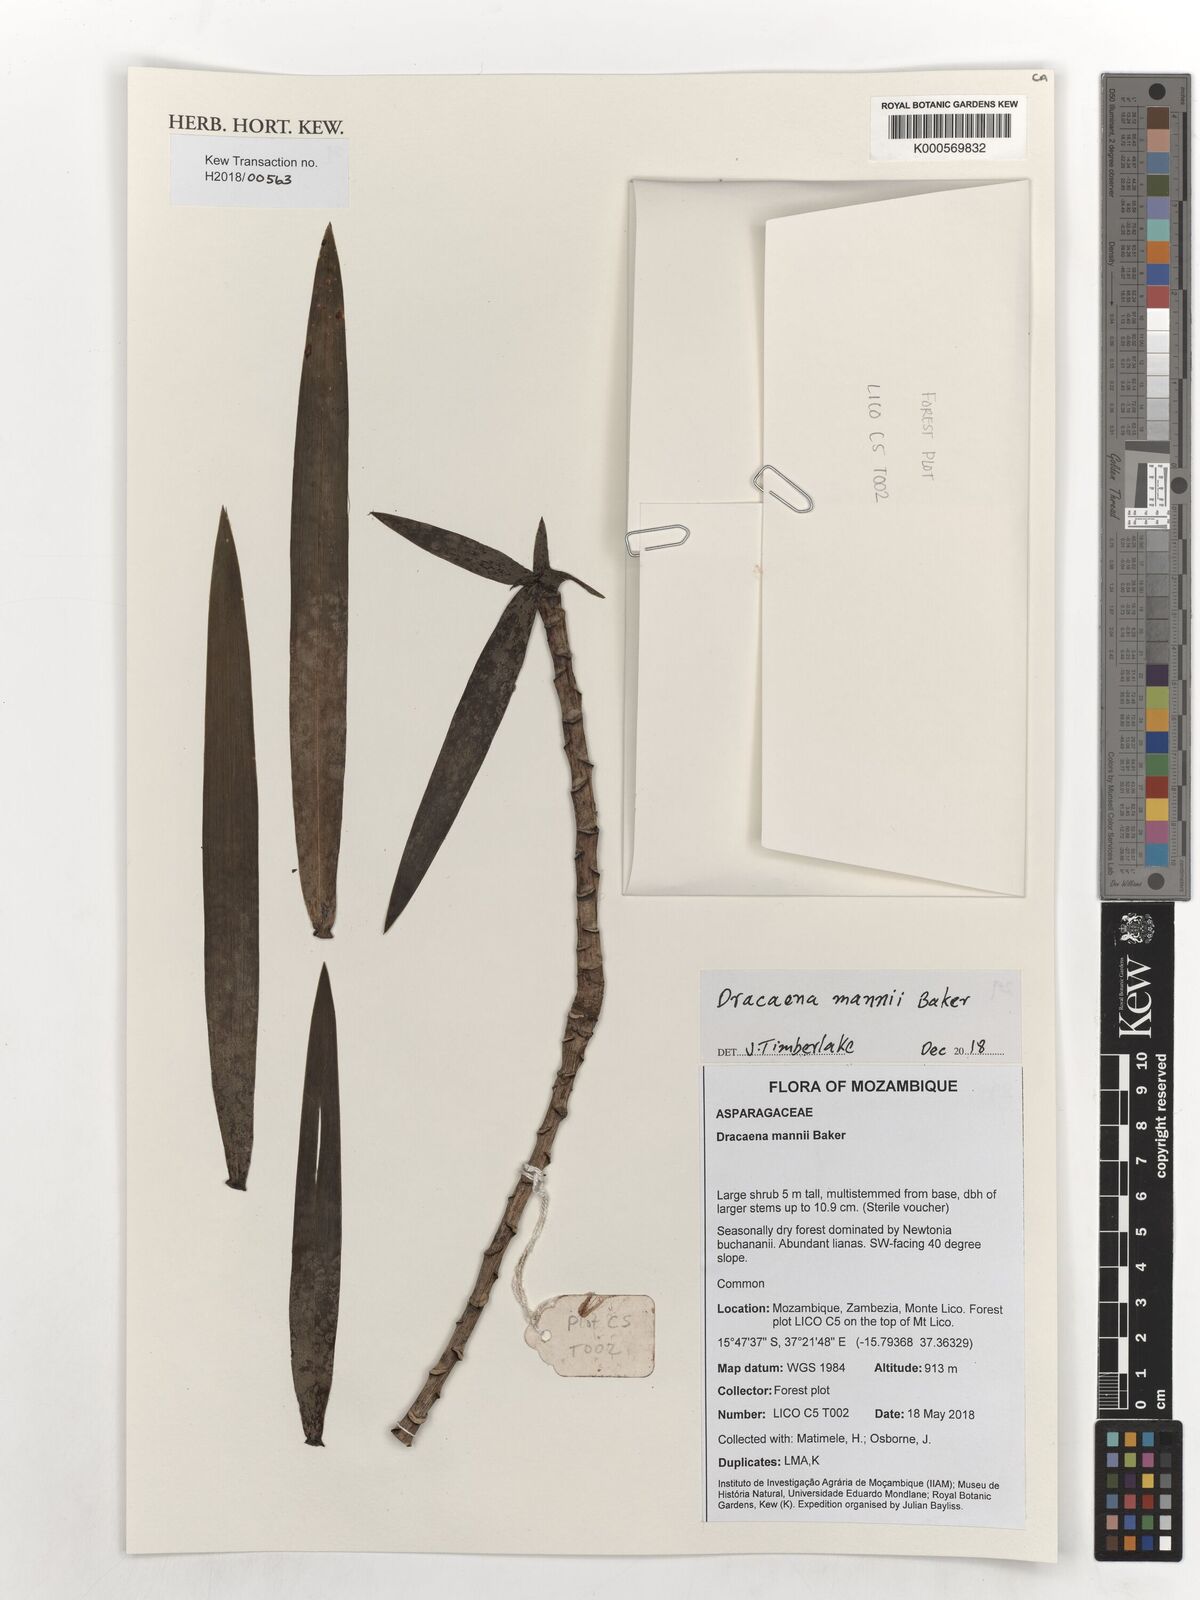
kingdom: Plantae
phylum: Tracheophyta
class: Liliopsida
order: Asparagales
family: Asparagaceae
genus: Dracaena
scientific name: Dracaena mannii
